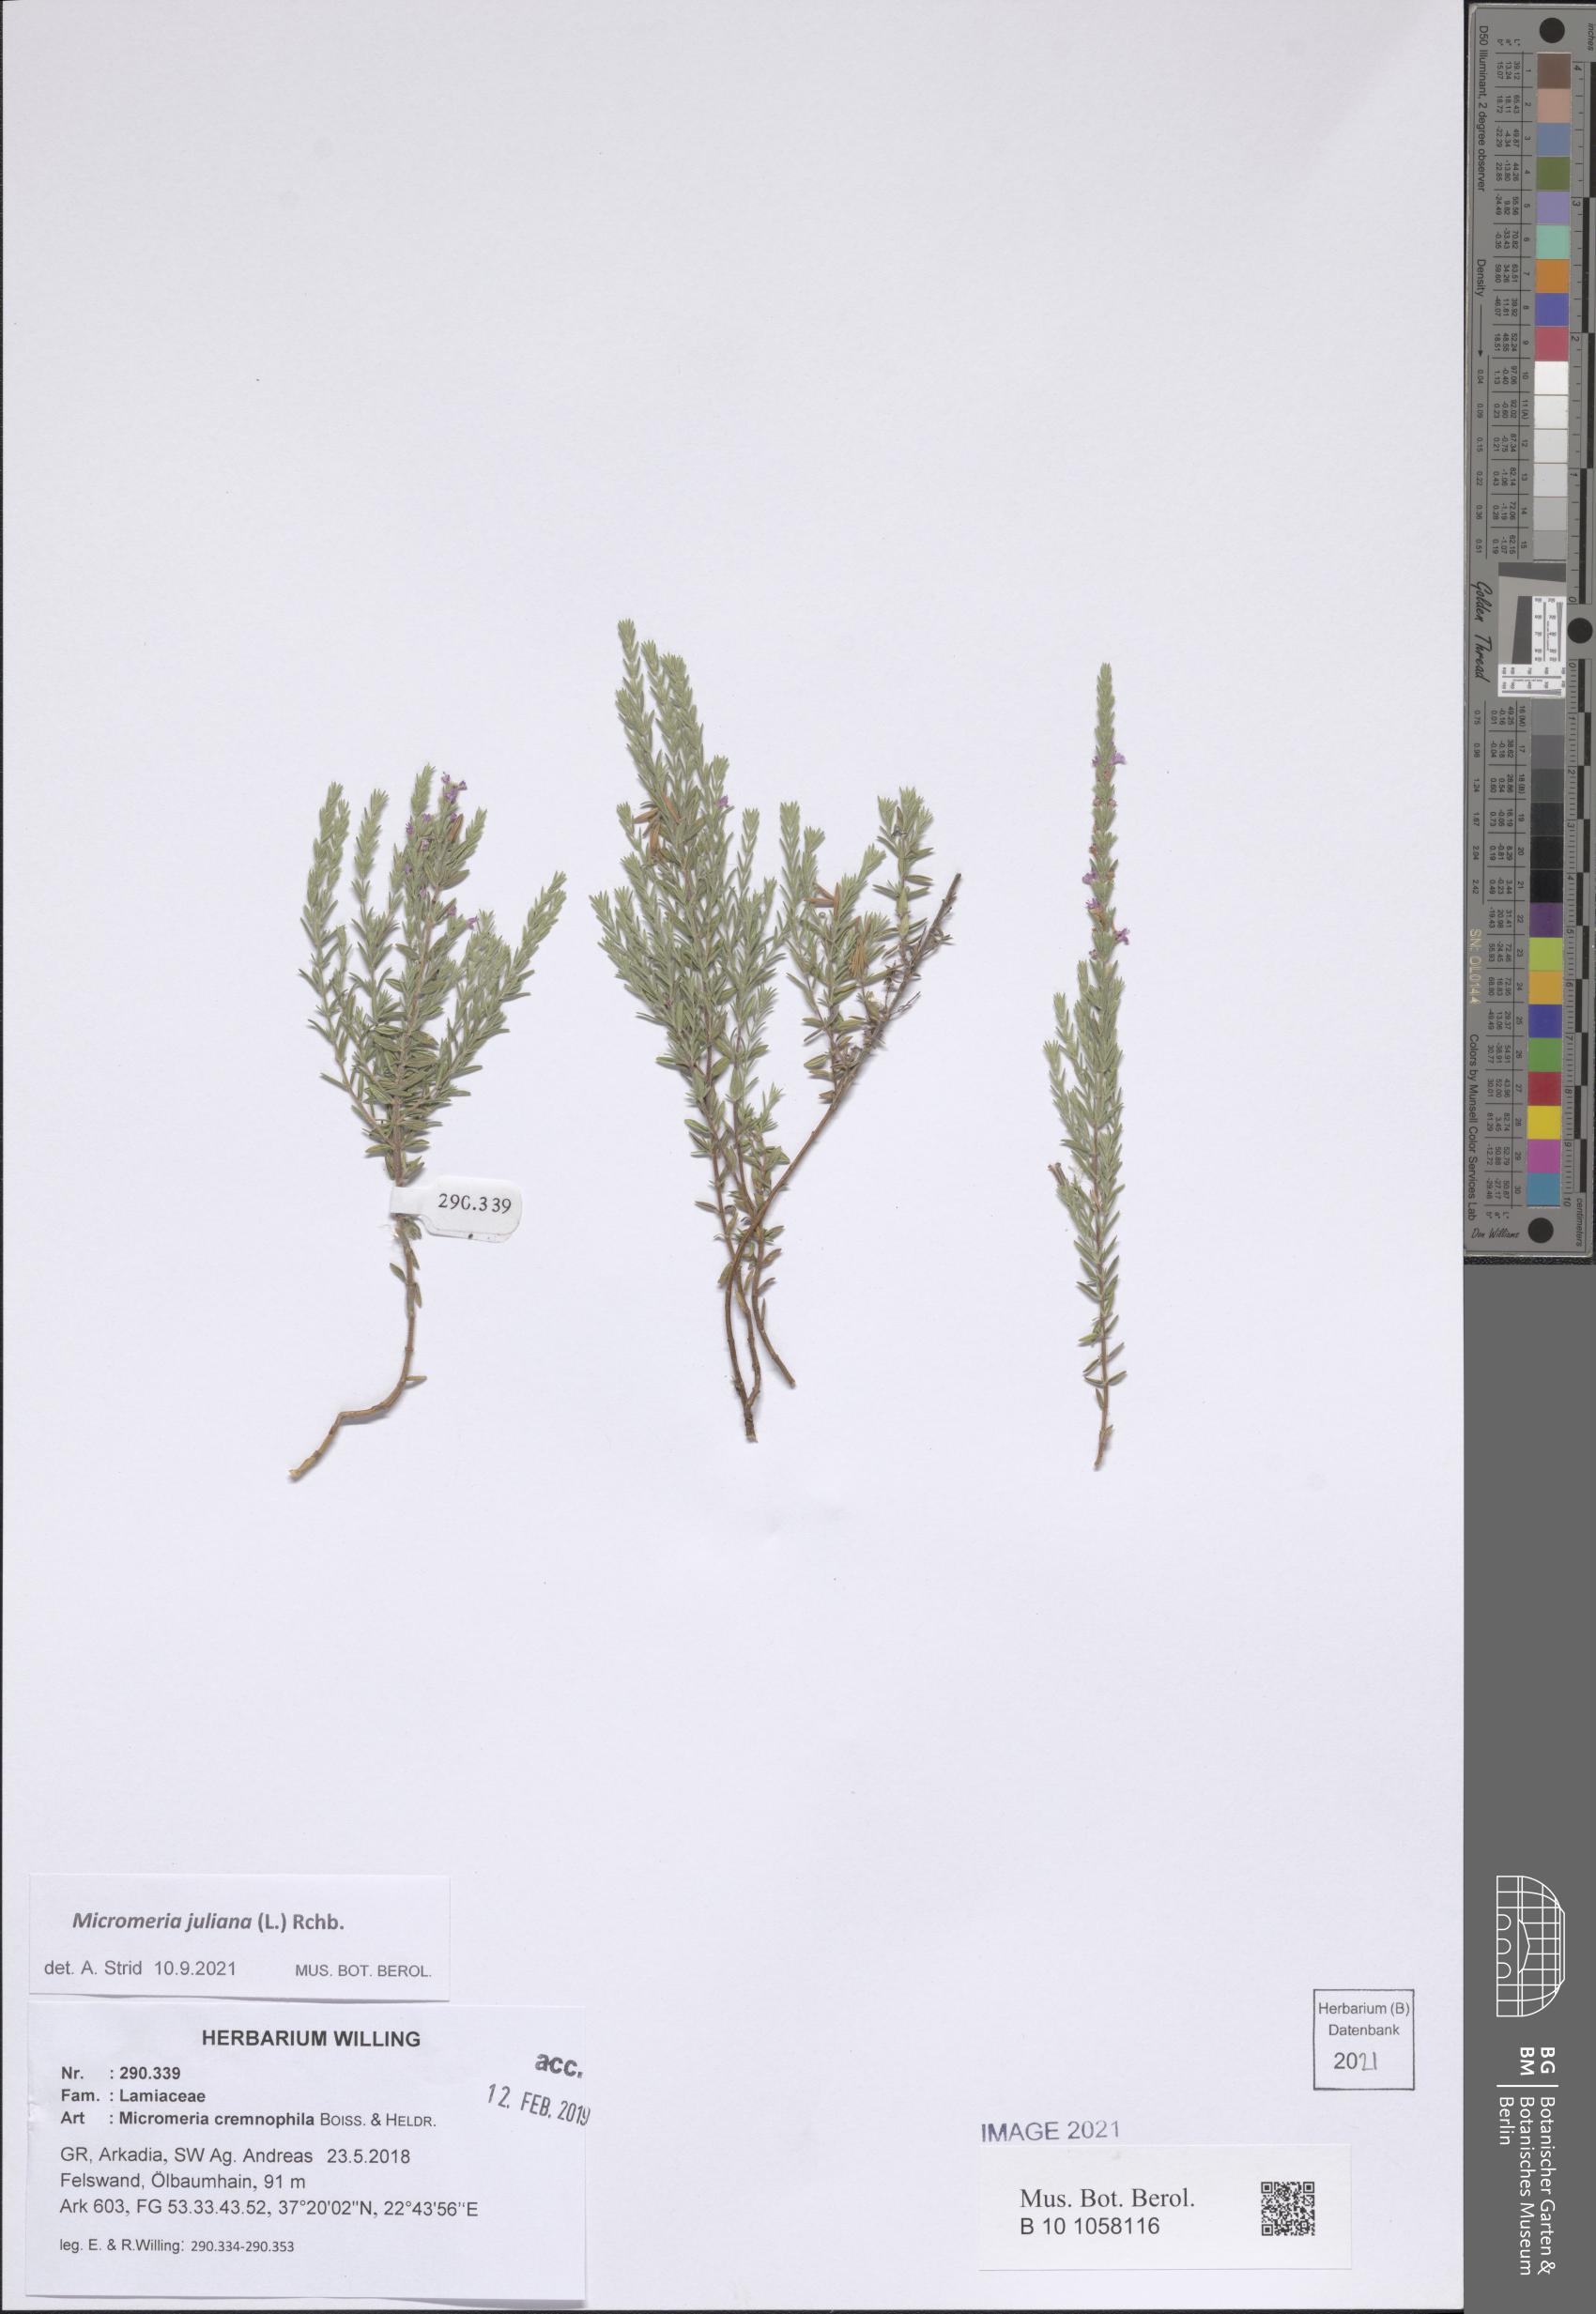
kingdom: Plantae
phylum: Tracheophyta
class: Magnoliopsida
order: Lamiales
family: Lamiaceae
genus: Micromeria
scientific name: Micromeria juliana
